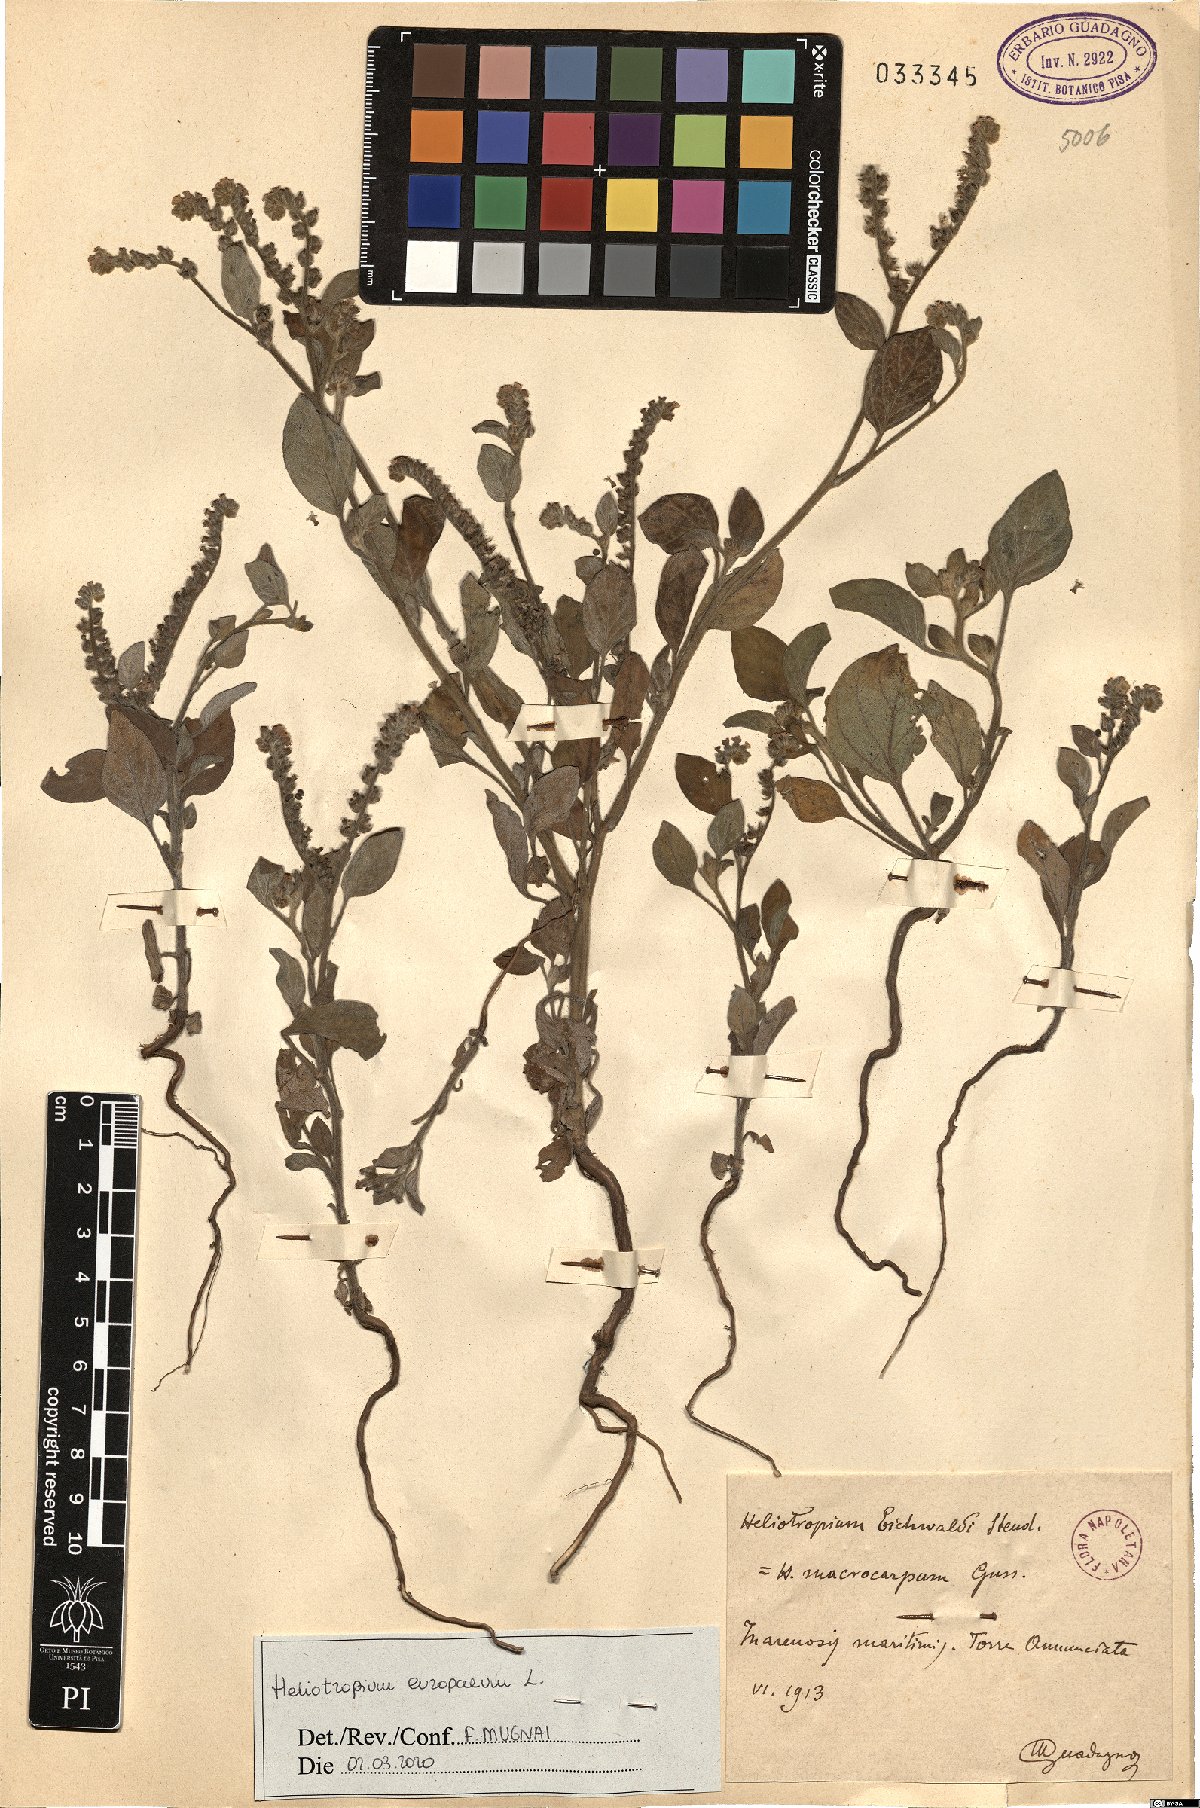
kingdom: Plantae
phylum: Tracheophyta
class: Magnoliopsida
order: Boraginales
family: Heliotropiaceae
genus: Heliotropium
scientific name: Heliotropium europaeum
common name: European heliotrope
